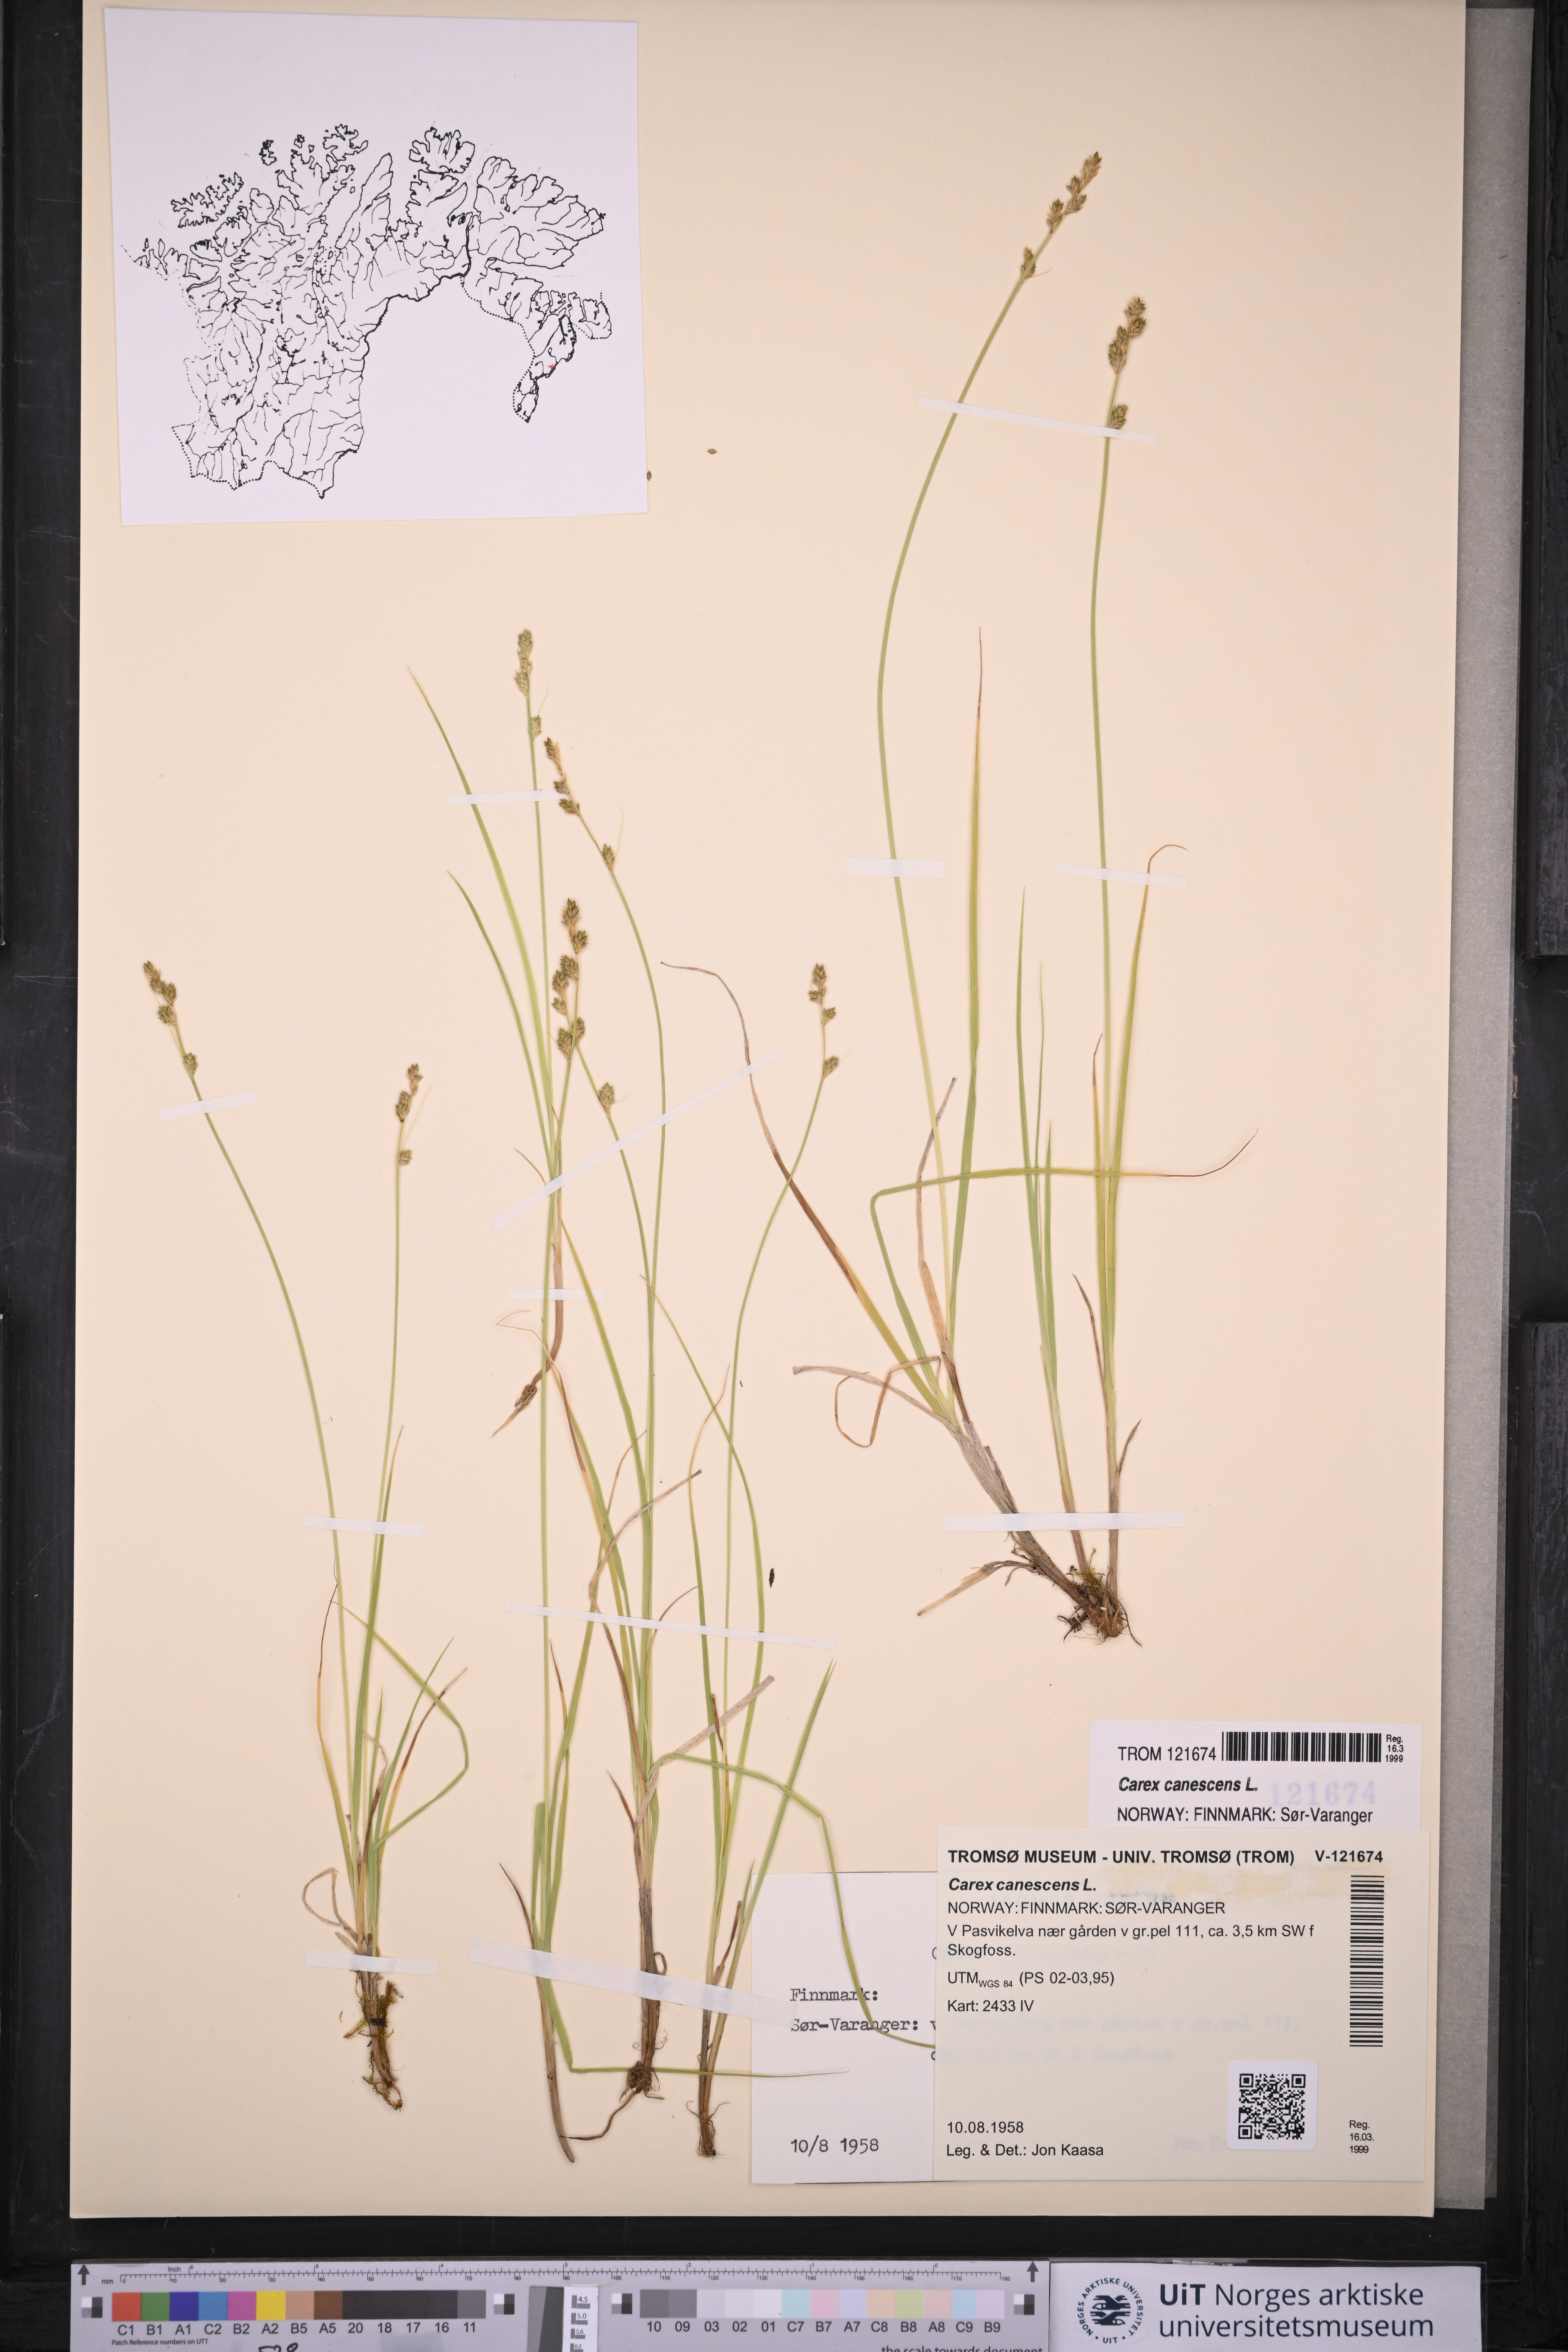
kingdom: Plantae
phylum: Tracheophyta
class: Liliopsida
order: Poales
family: Cyperaceae
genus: Carex
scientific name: Carex canescens
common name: White sedge
